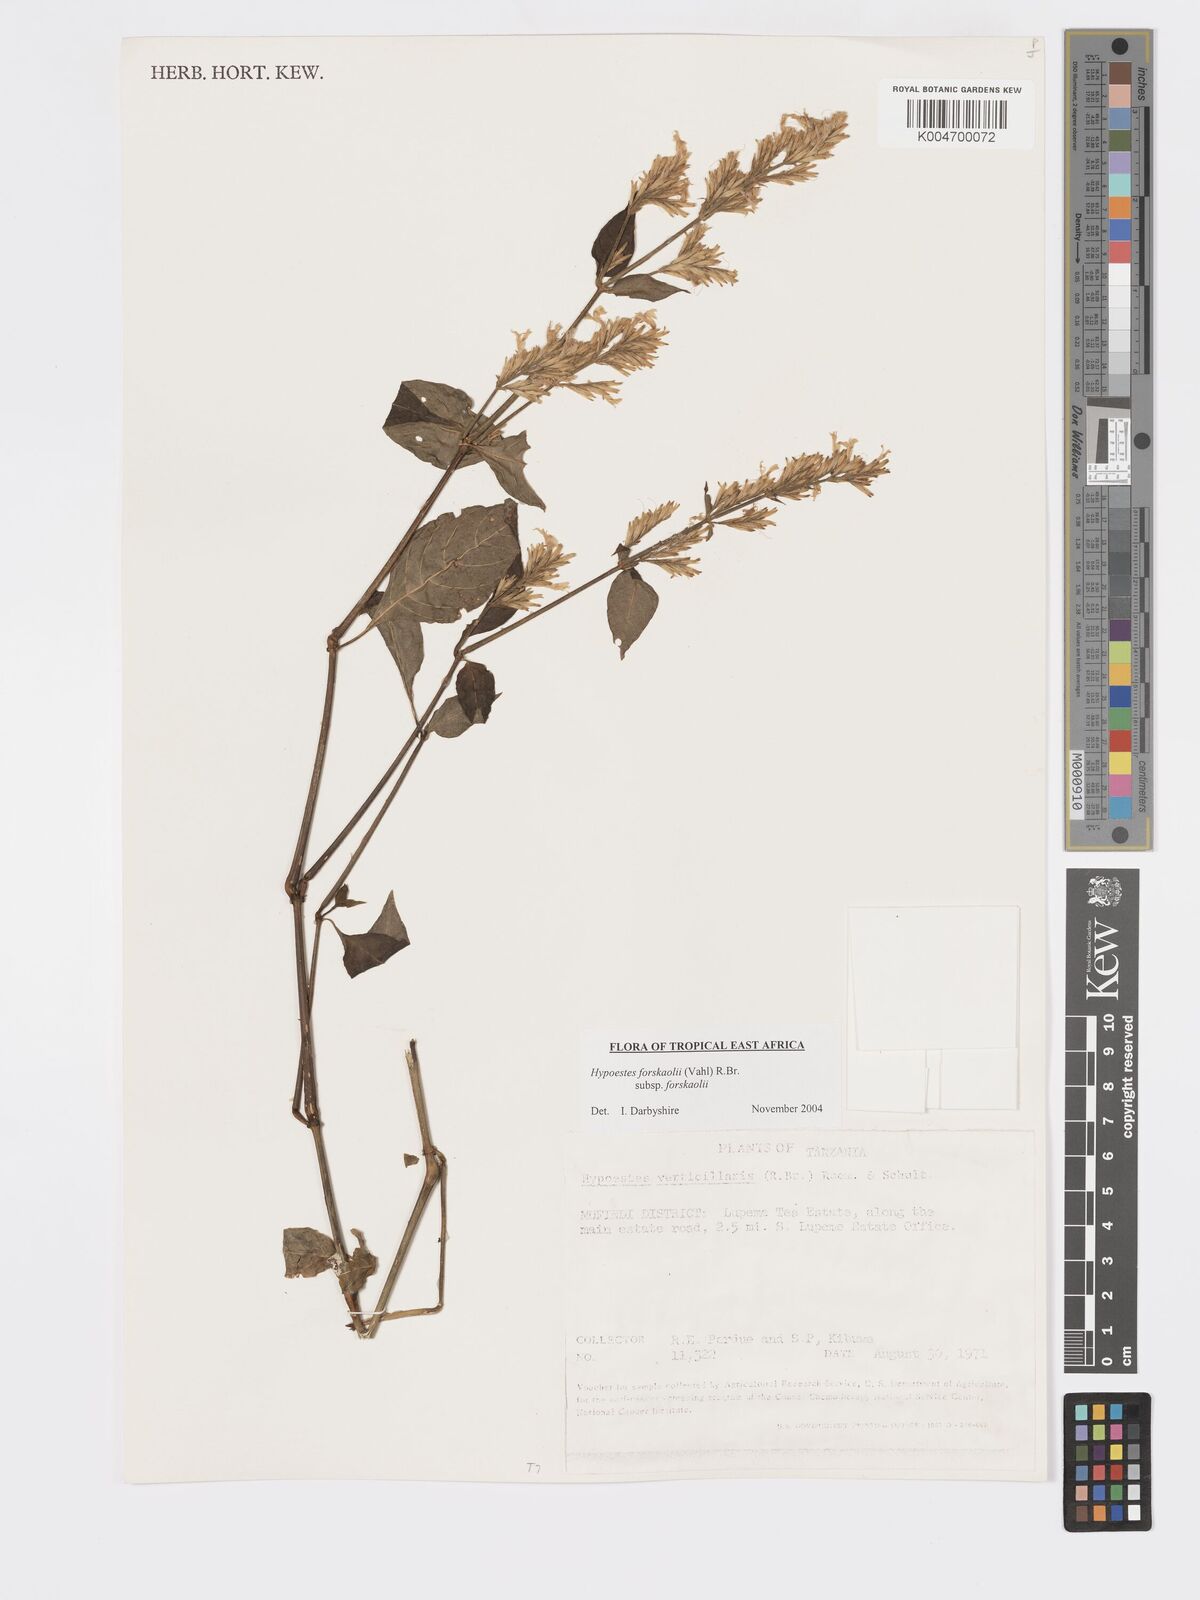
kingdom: Plantae
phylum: Tracheophyta
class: Magnoliopsida
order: Lamiales
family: Acanthaceae
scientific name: Acanthaceae
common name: Acanthaceae
